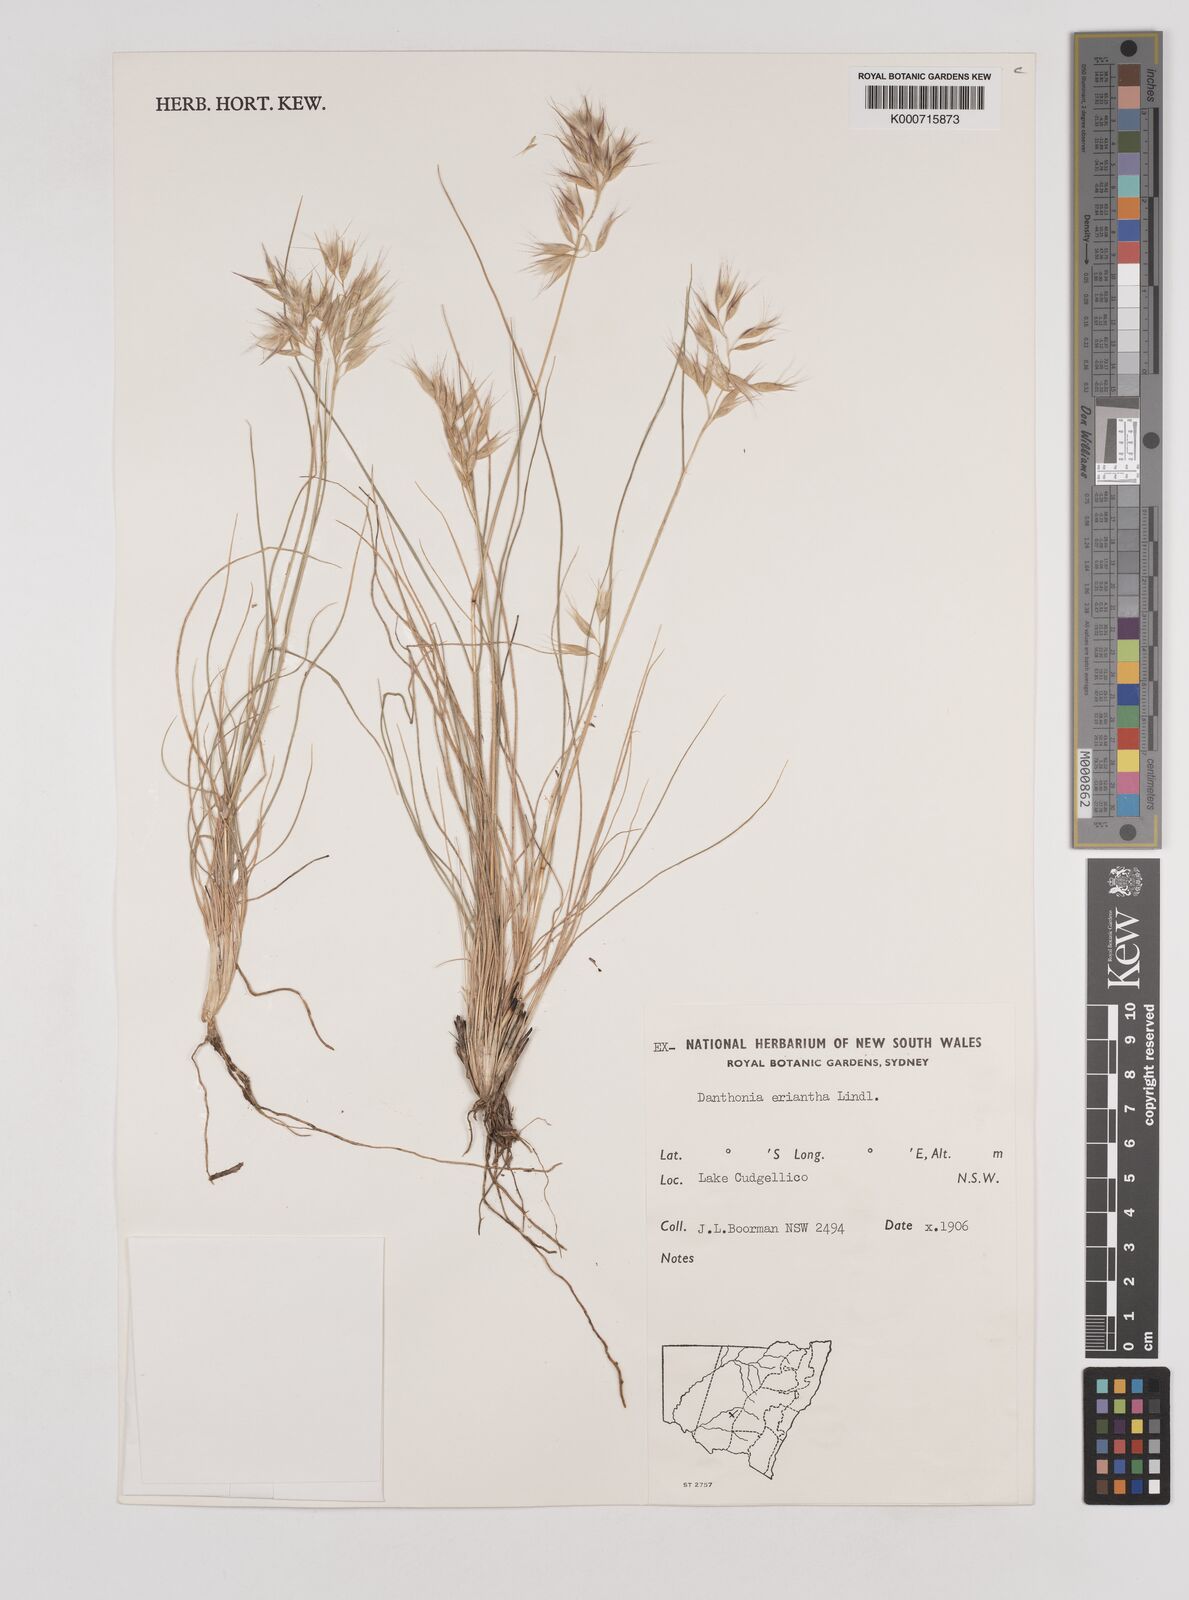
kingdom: Plantae
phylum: Tracheophyta
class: Liliopsida
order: Poales
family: Poaceae
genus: Rytidosperma
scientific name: Rytidosperma erianthum
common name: Hill wallaby grass
